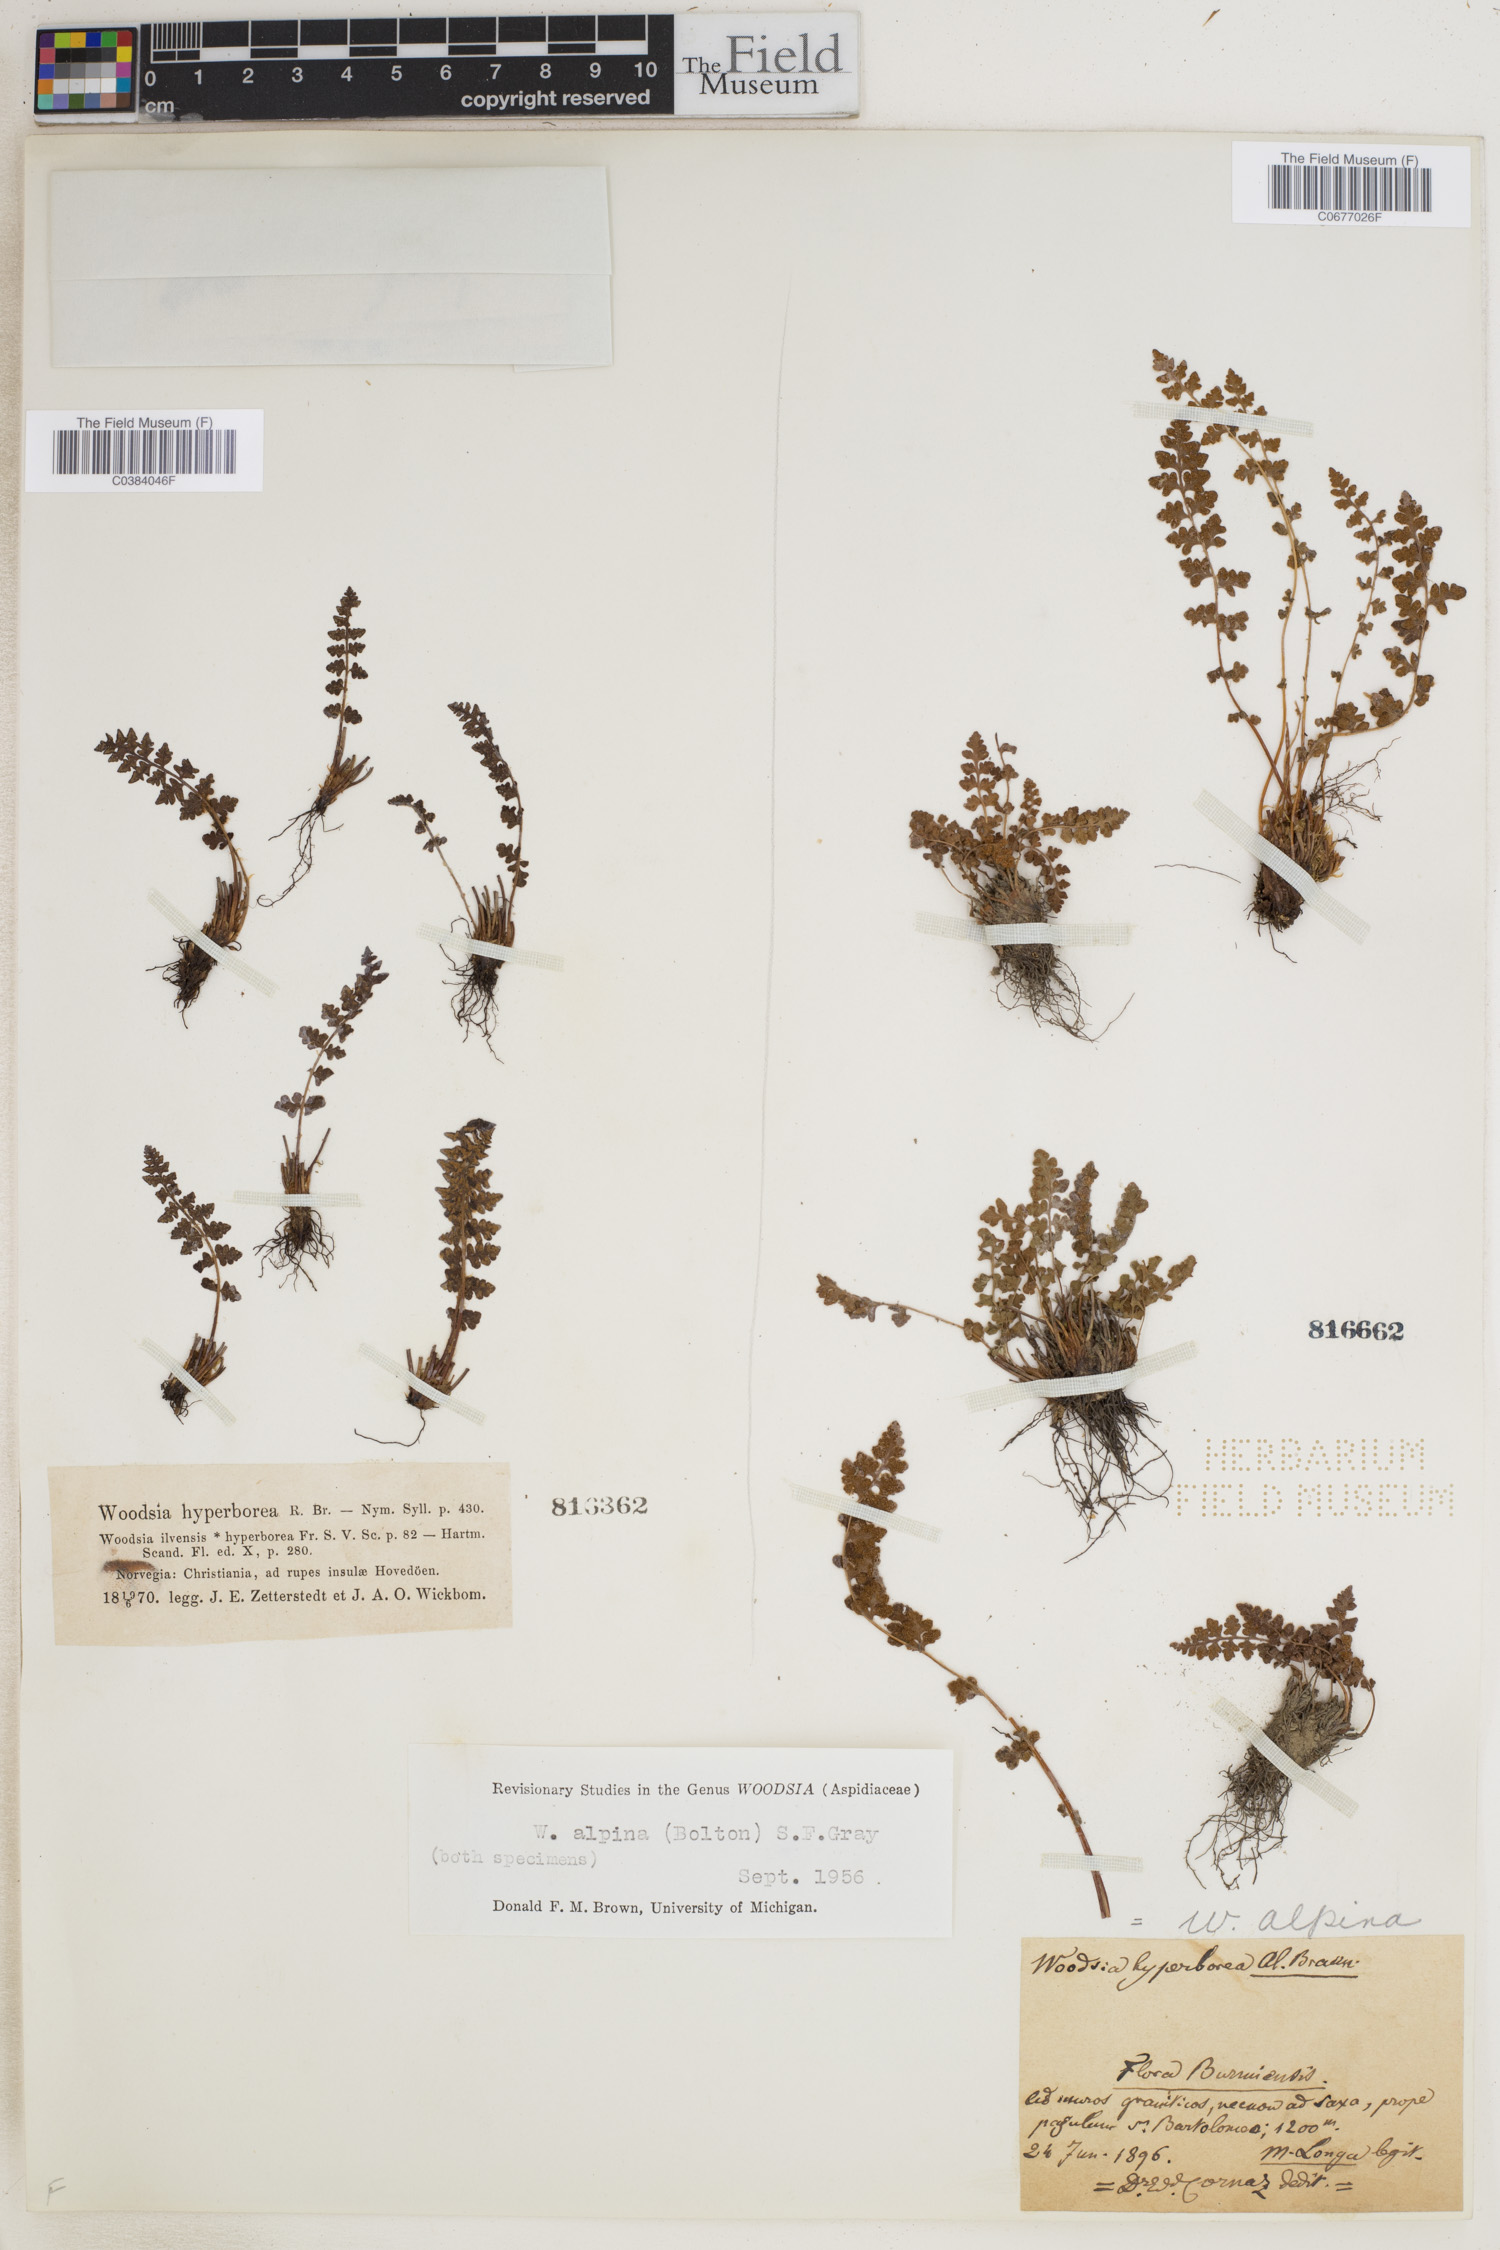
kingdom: Plantae
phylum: Tracheophyta
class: Polypodiopsida
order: Polypodiales
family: Woodsiaceae
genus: Woodsia
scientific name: Woodsia alpina
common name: Alpine woodsia
